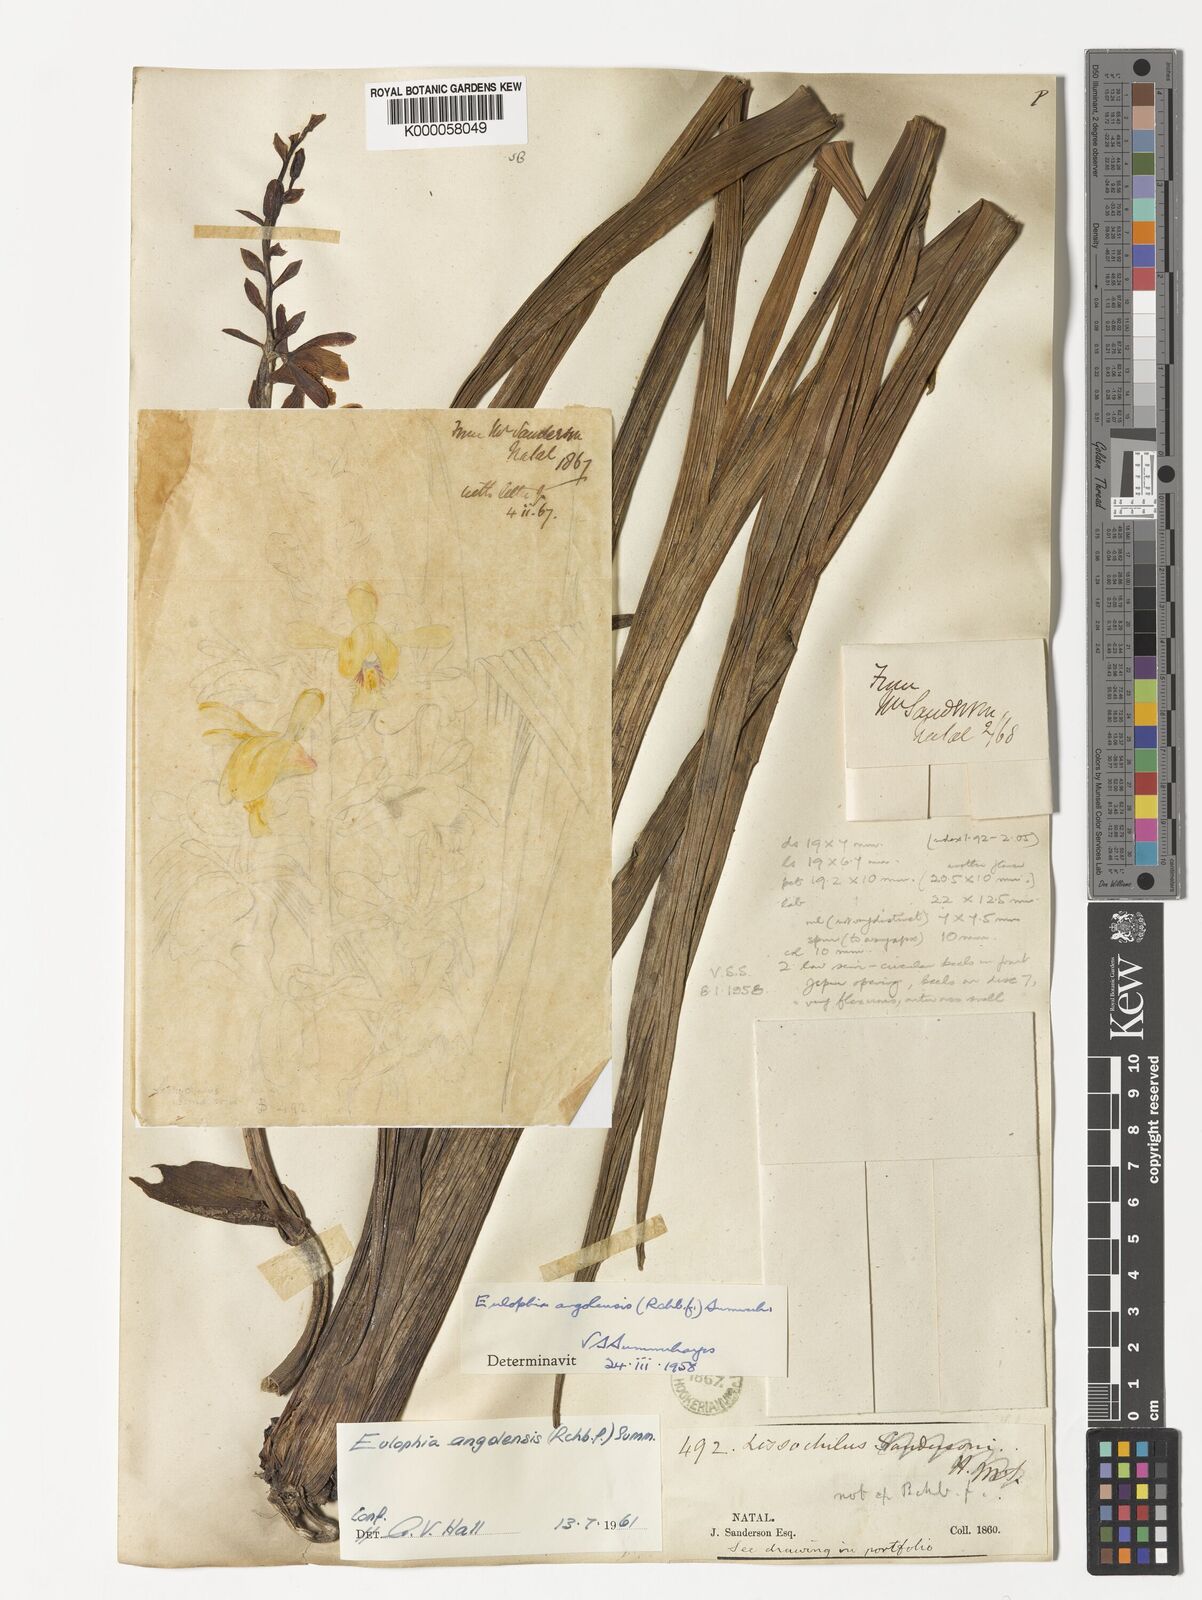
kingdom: Plantae
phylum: Tracheophyta
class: Liliopsida
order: Asparagales
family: Orchidaceae
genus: Eulophia
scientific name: Eulophia angolensis
